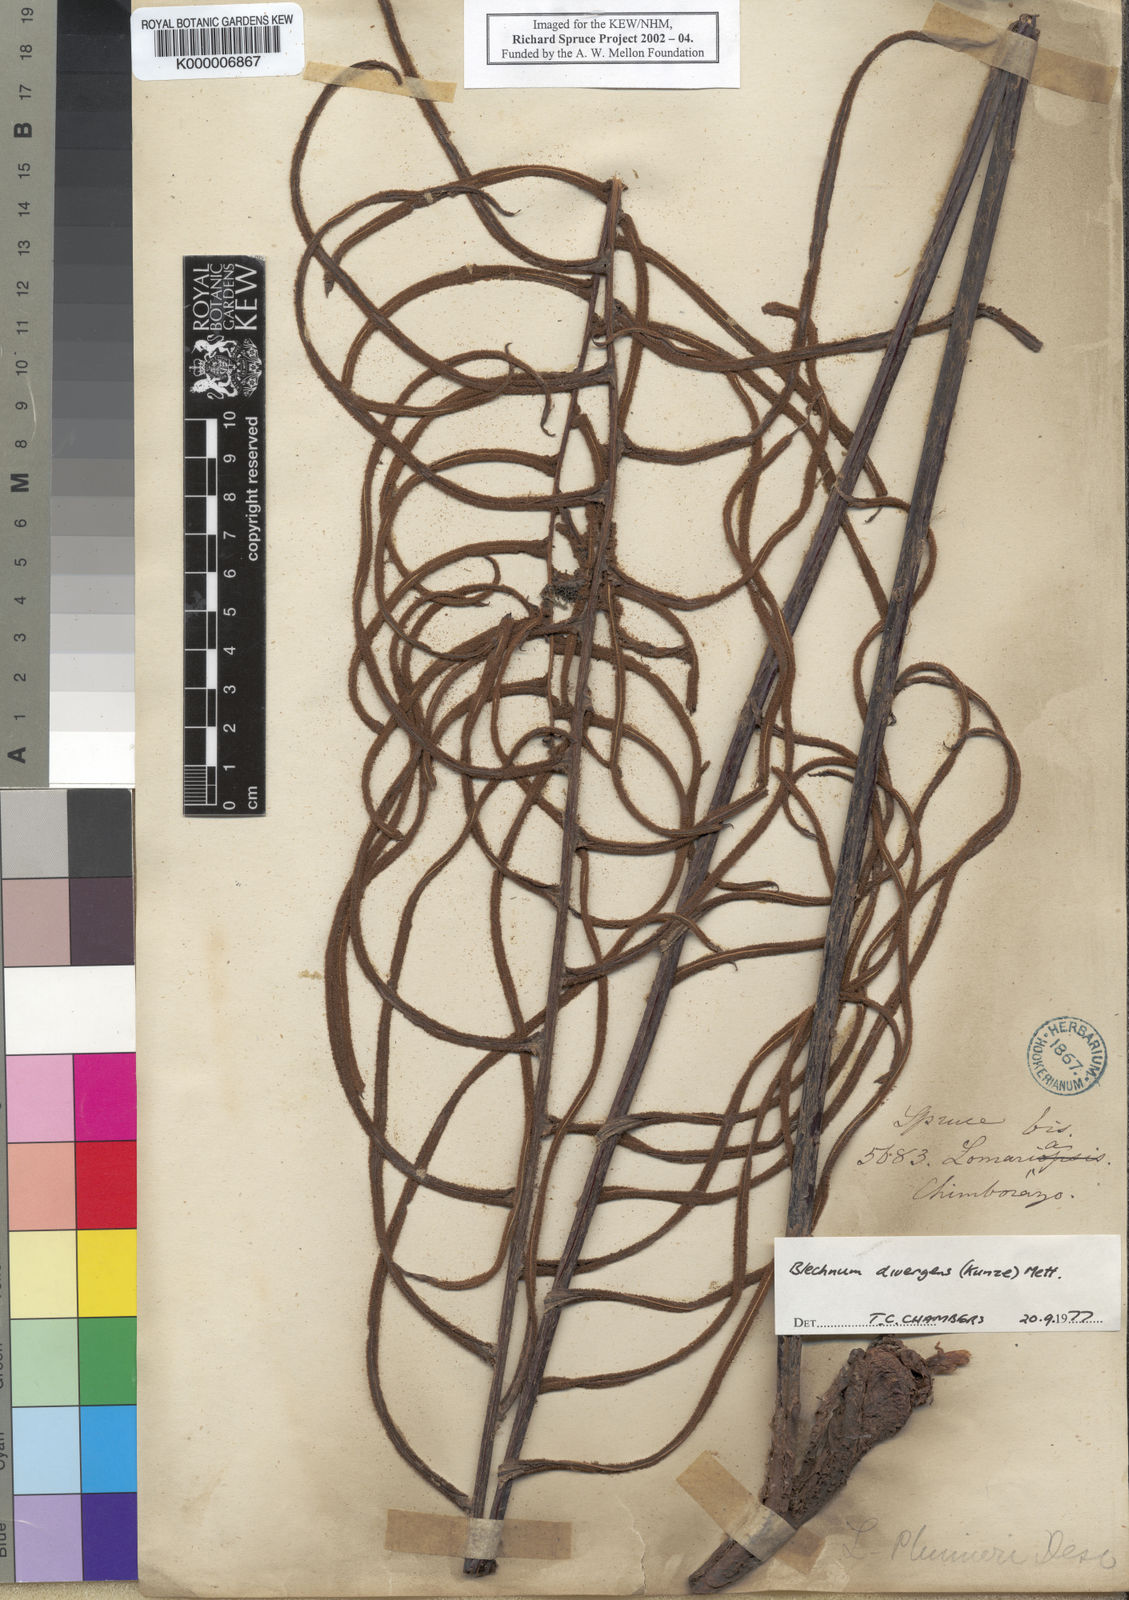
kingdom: Plantae
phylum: Tracheophyta
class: Polypodiopsida
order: Polypodiales
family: Blechnaceae
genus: Austroblechnum
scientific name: Austroblechnum divergens
